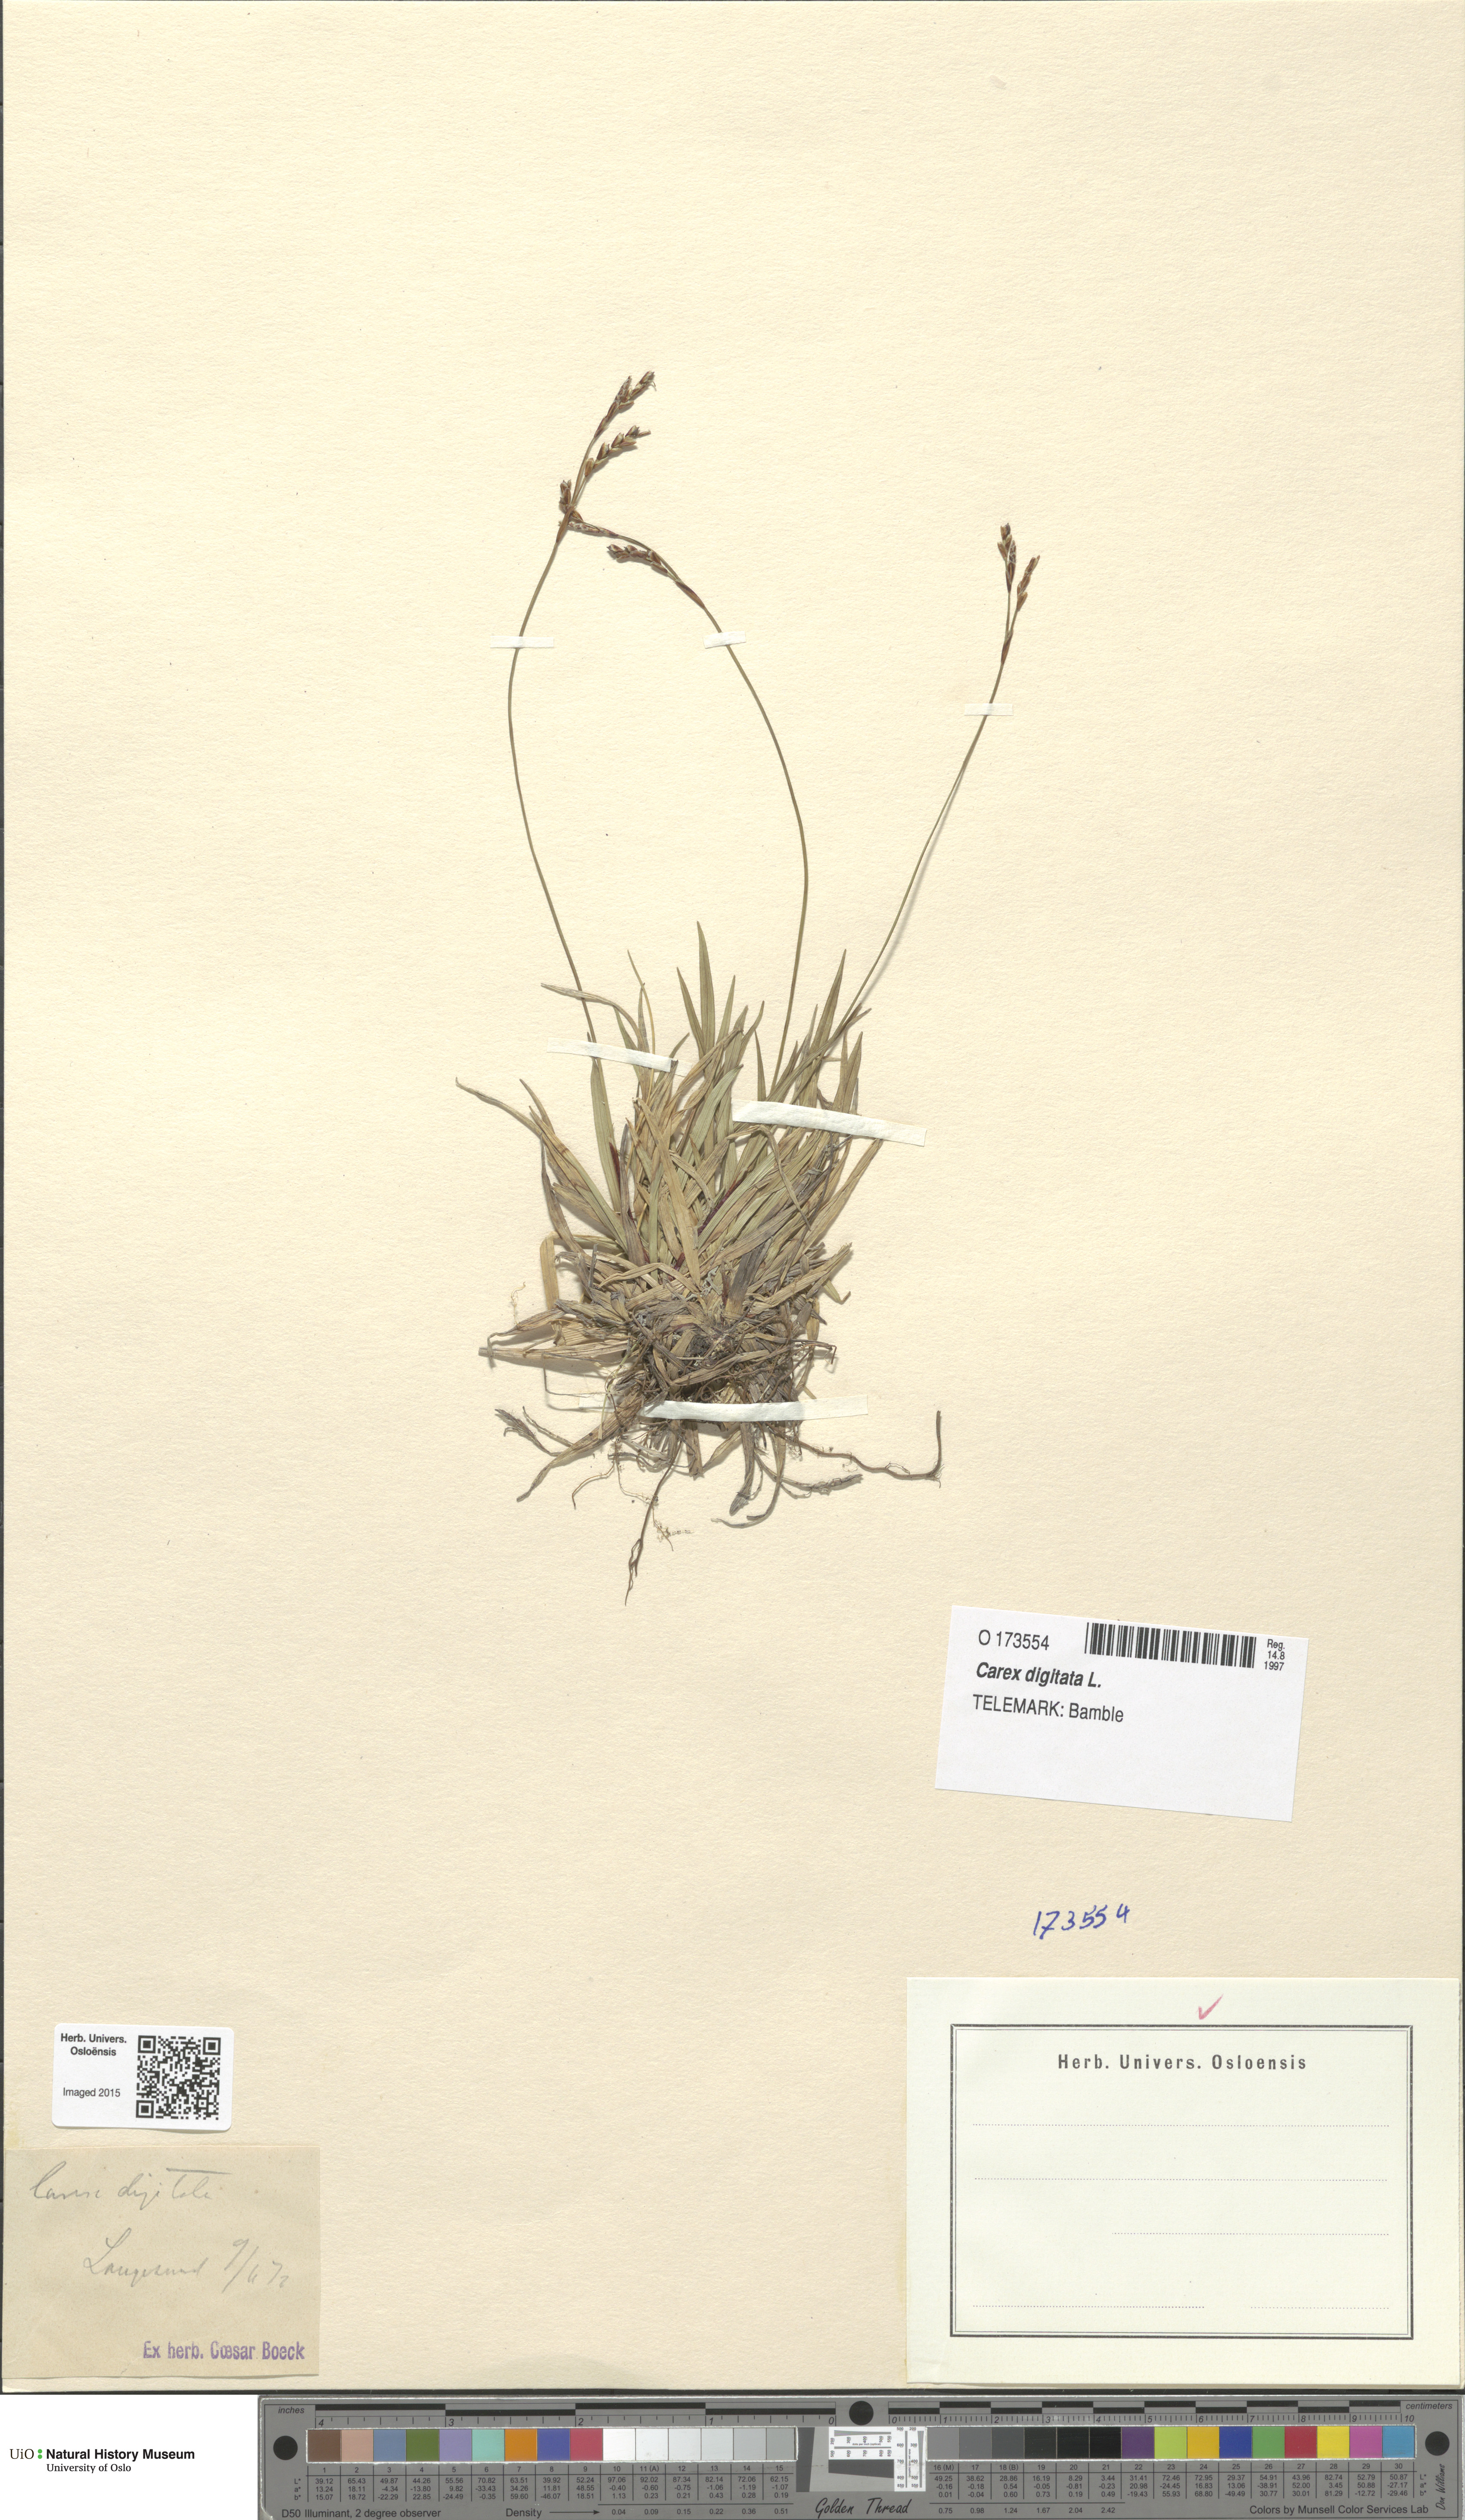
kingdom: Plantae
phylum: Tracheophyta
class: Liliopsida
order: Poales
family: Cyperaceae
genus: Carex
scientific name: Carex digitata
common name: Fingered sedge
